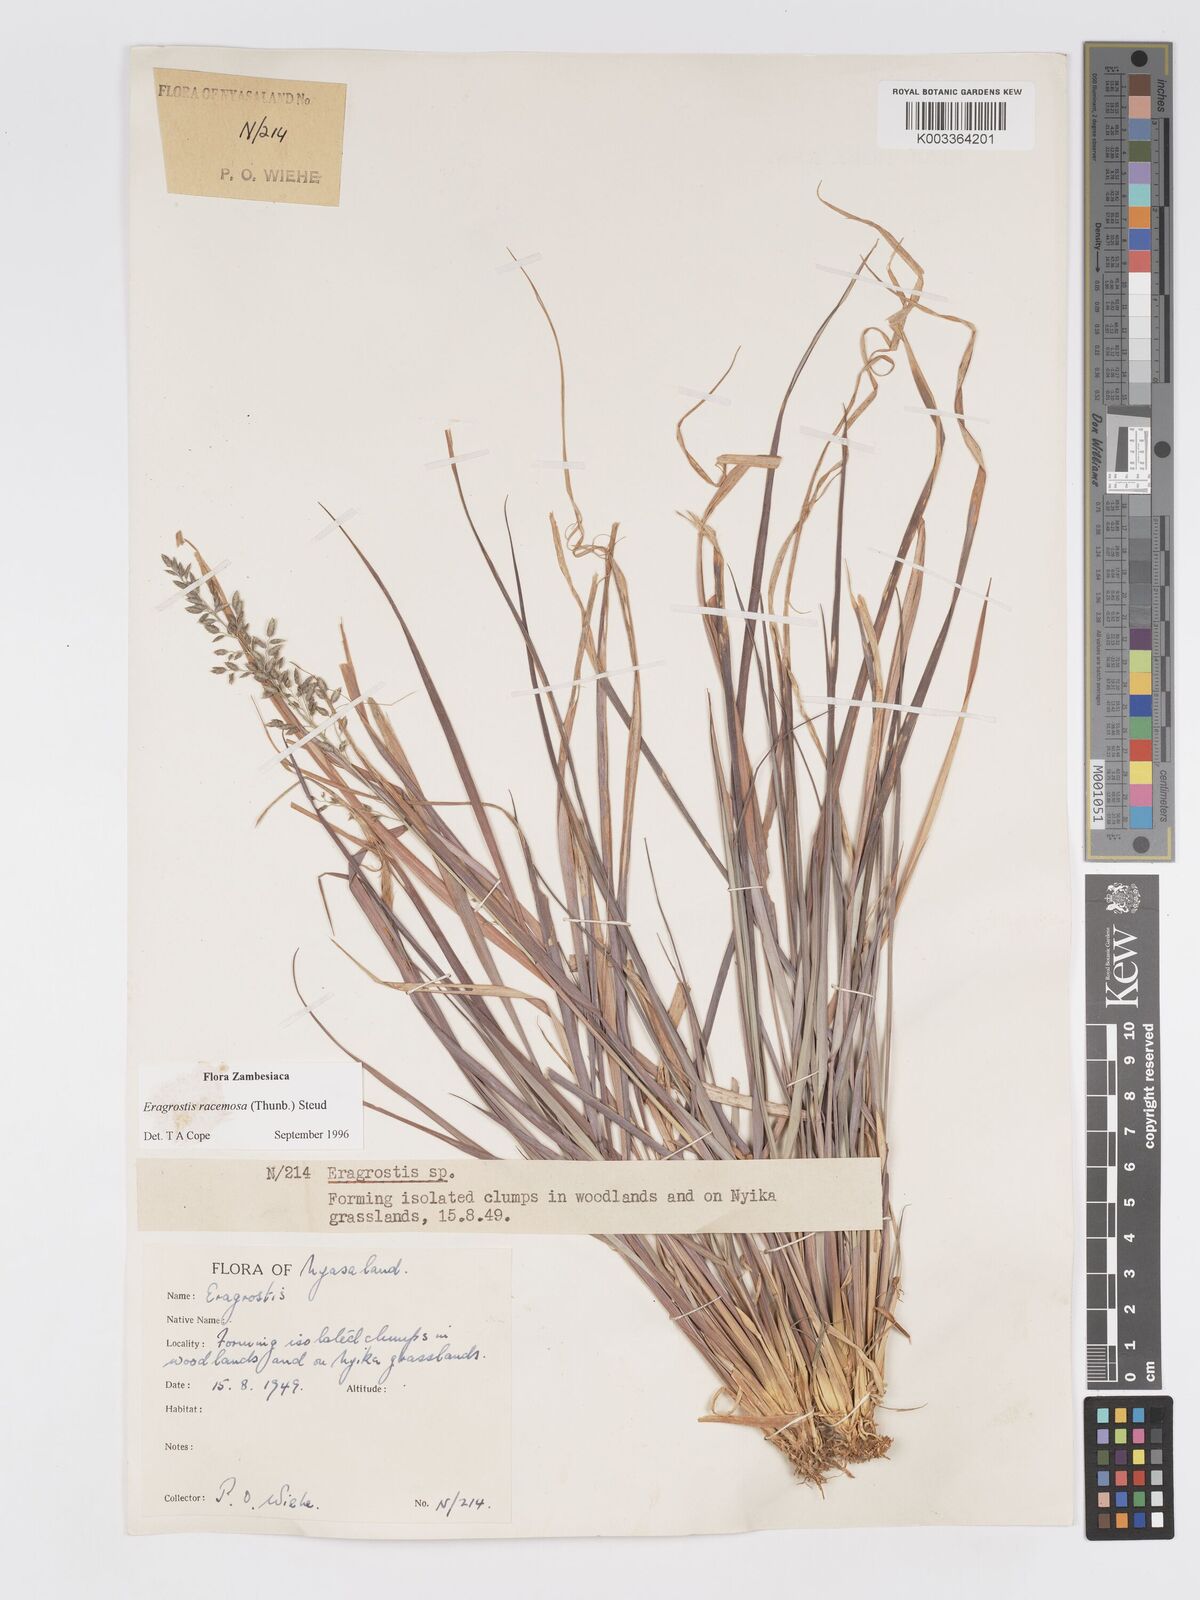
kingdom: Plantae
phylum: Tracheophyta
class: Liliopsida
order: Poales
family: Poaceae
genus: Eragrostis
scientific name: Eragrostis racemosa
